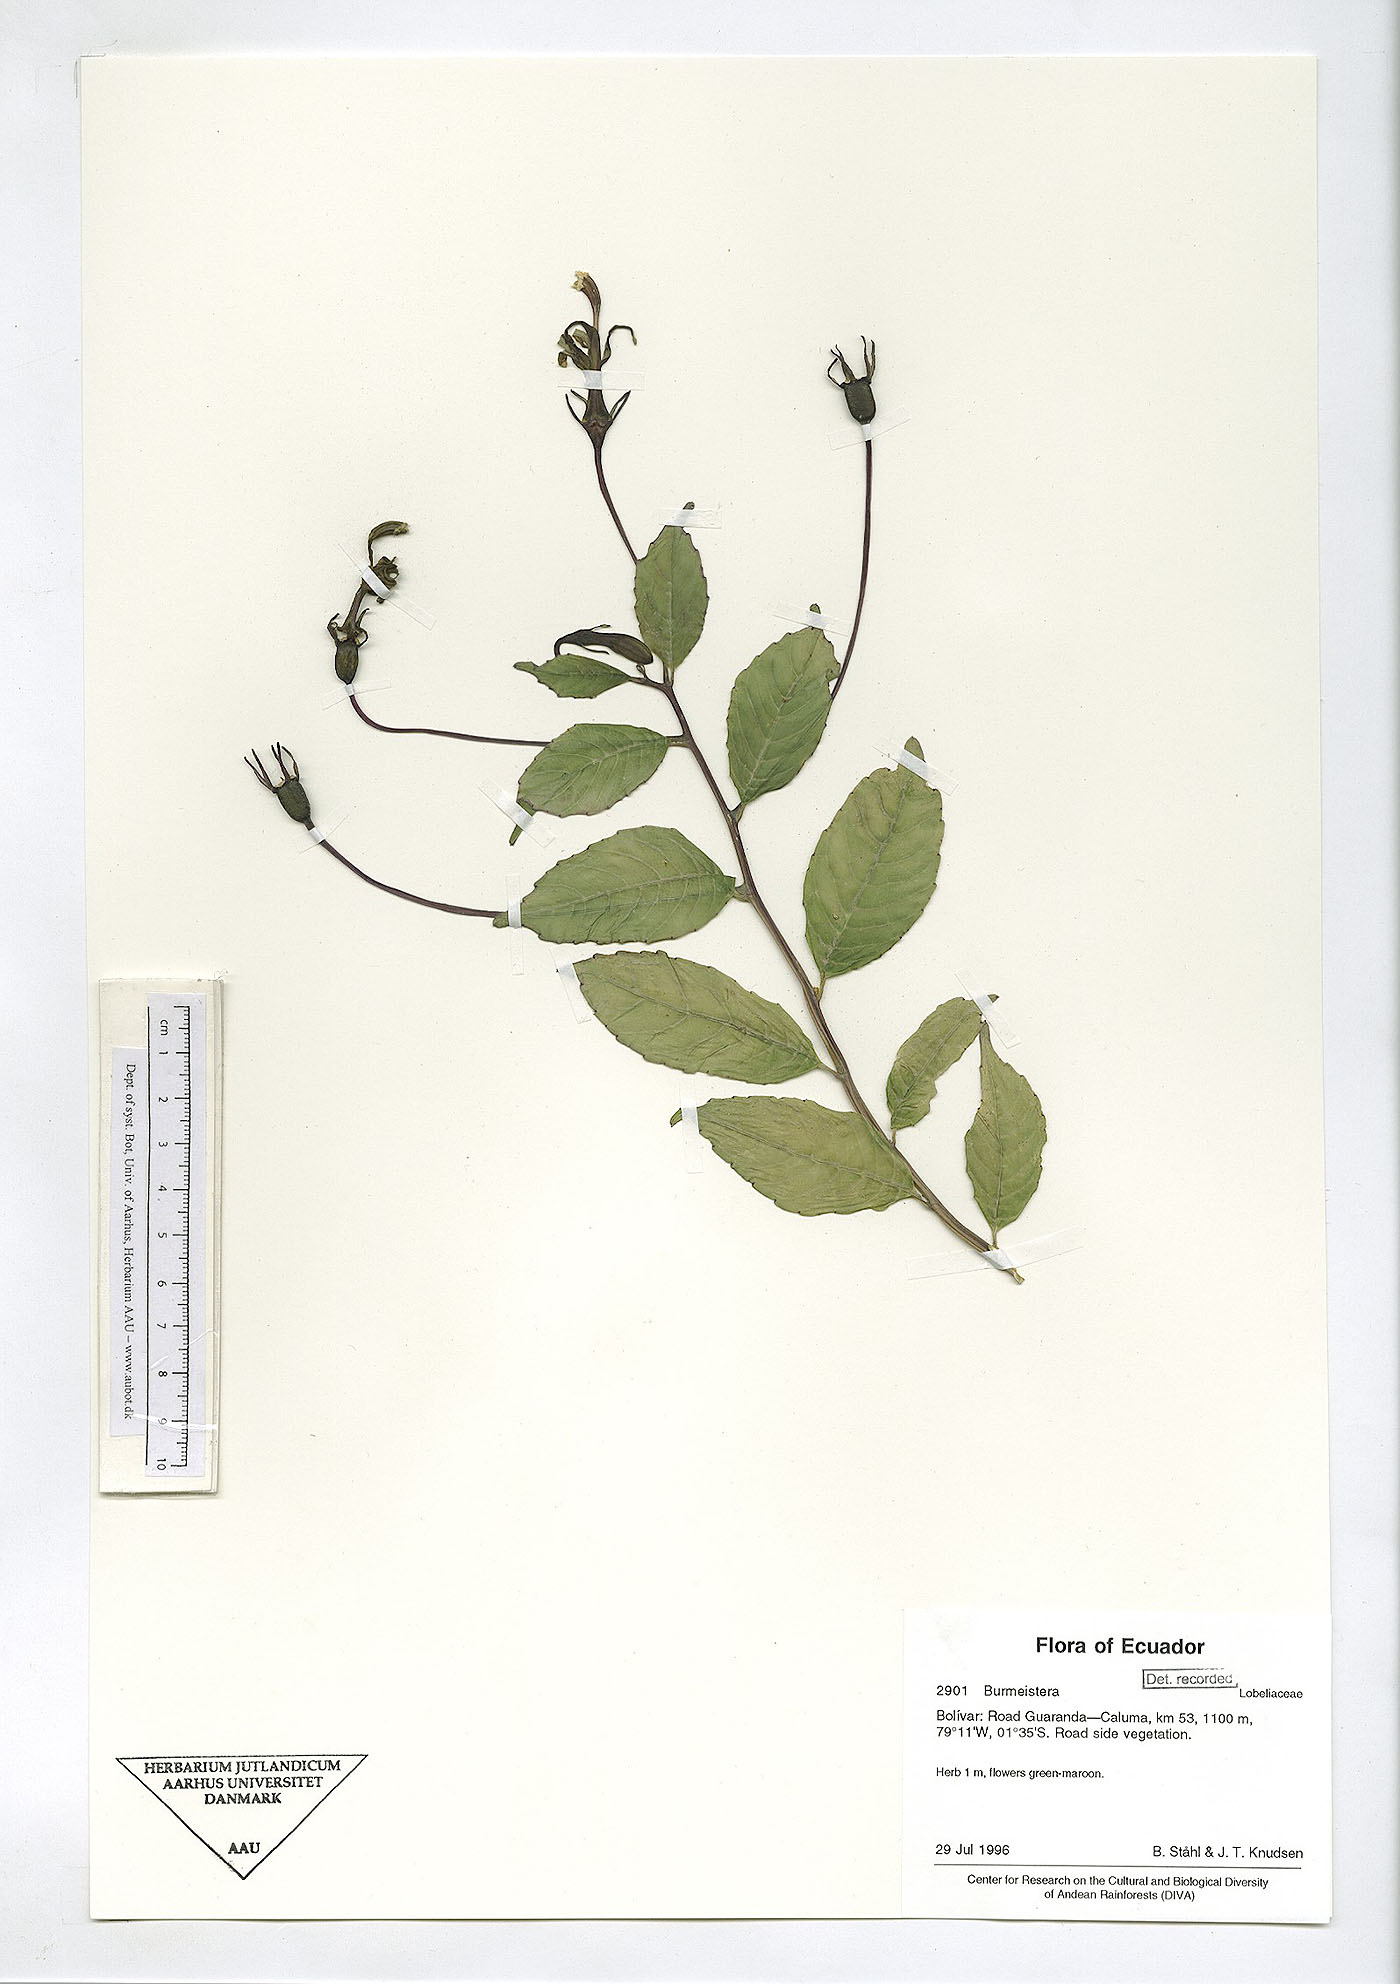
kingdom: Plantae
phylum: Tracheophyta
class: Magnoliopsida
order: Asterales
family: Campanulaceae
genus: Burmeistera
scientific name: Burmeistera
